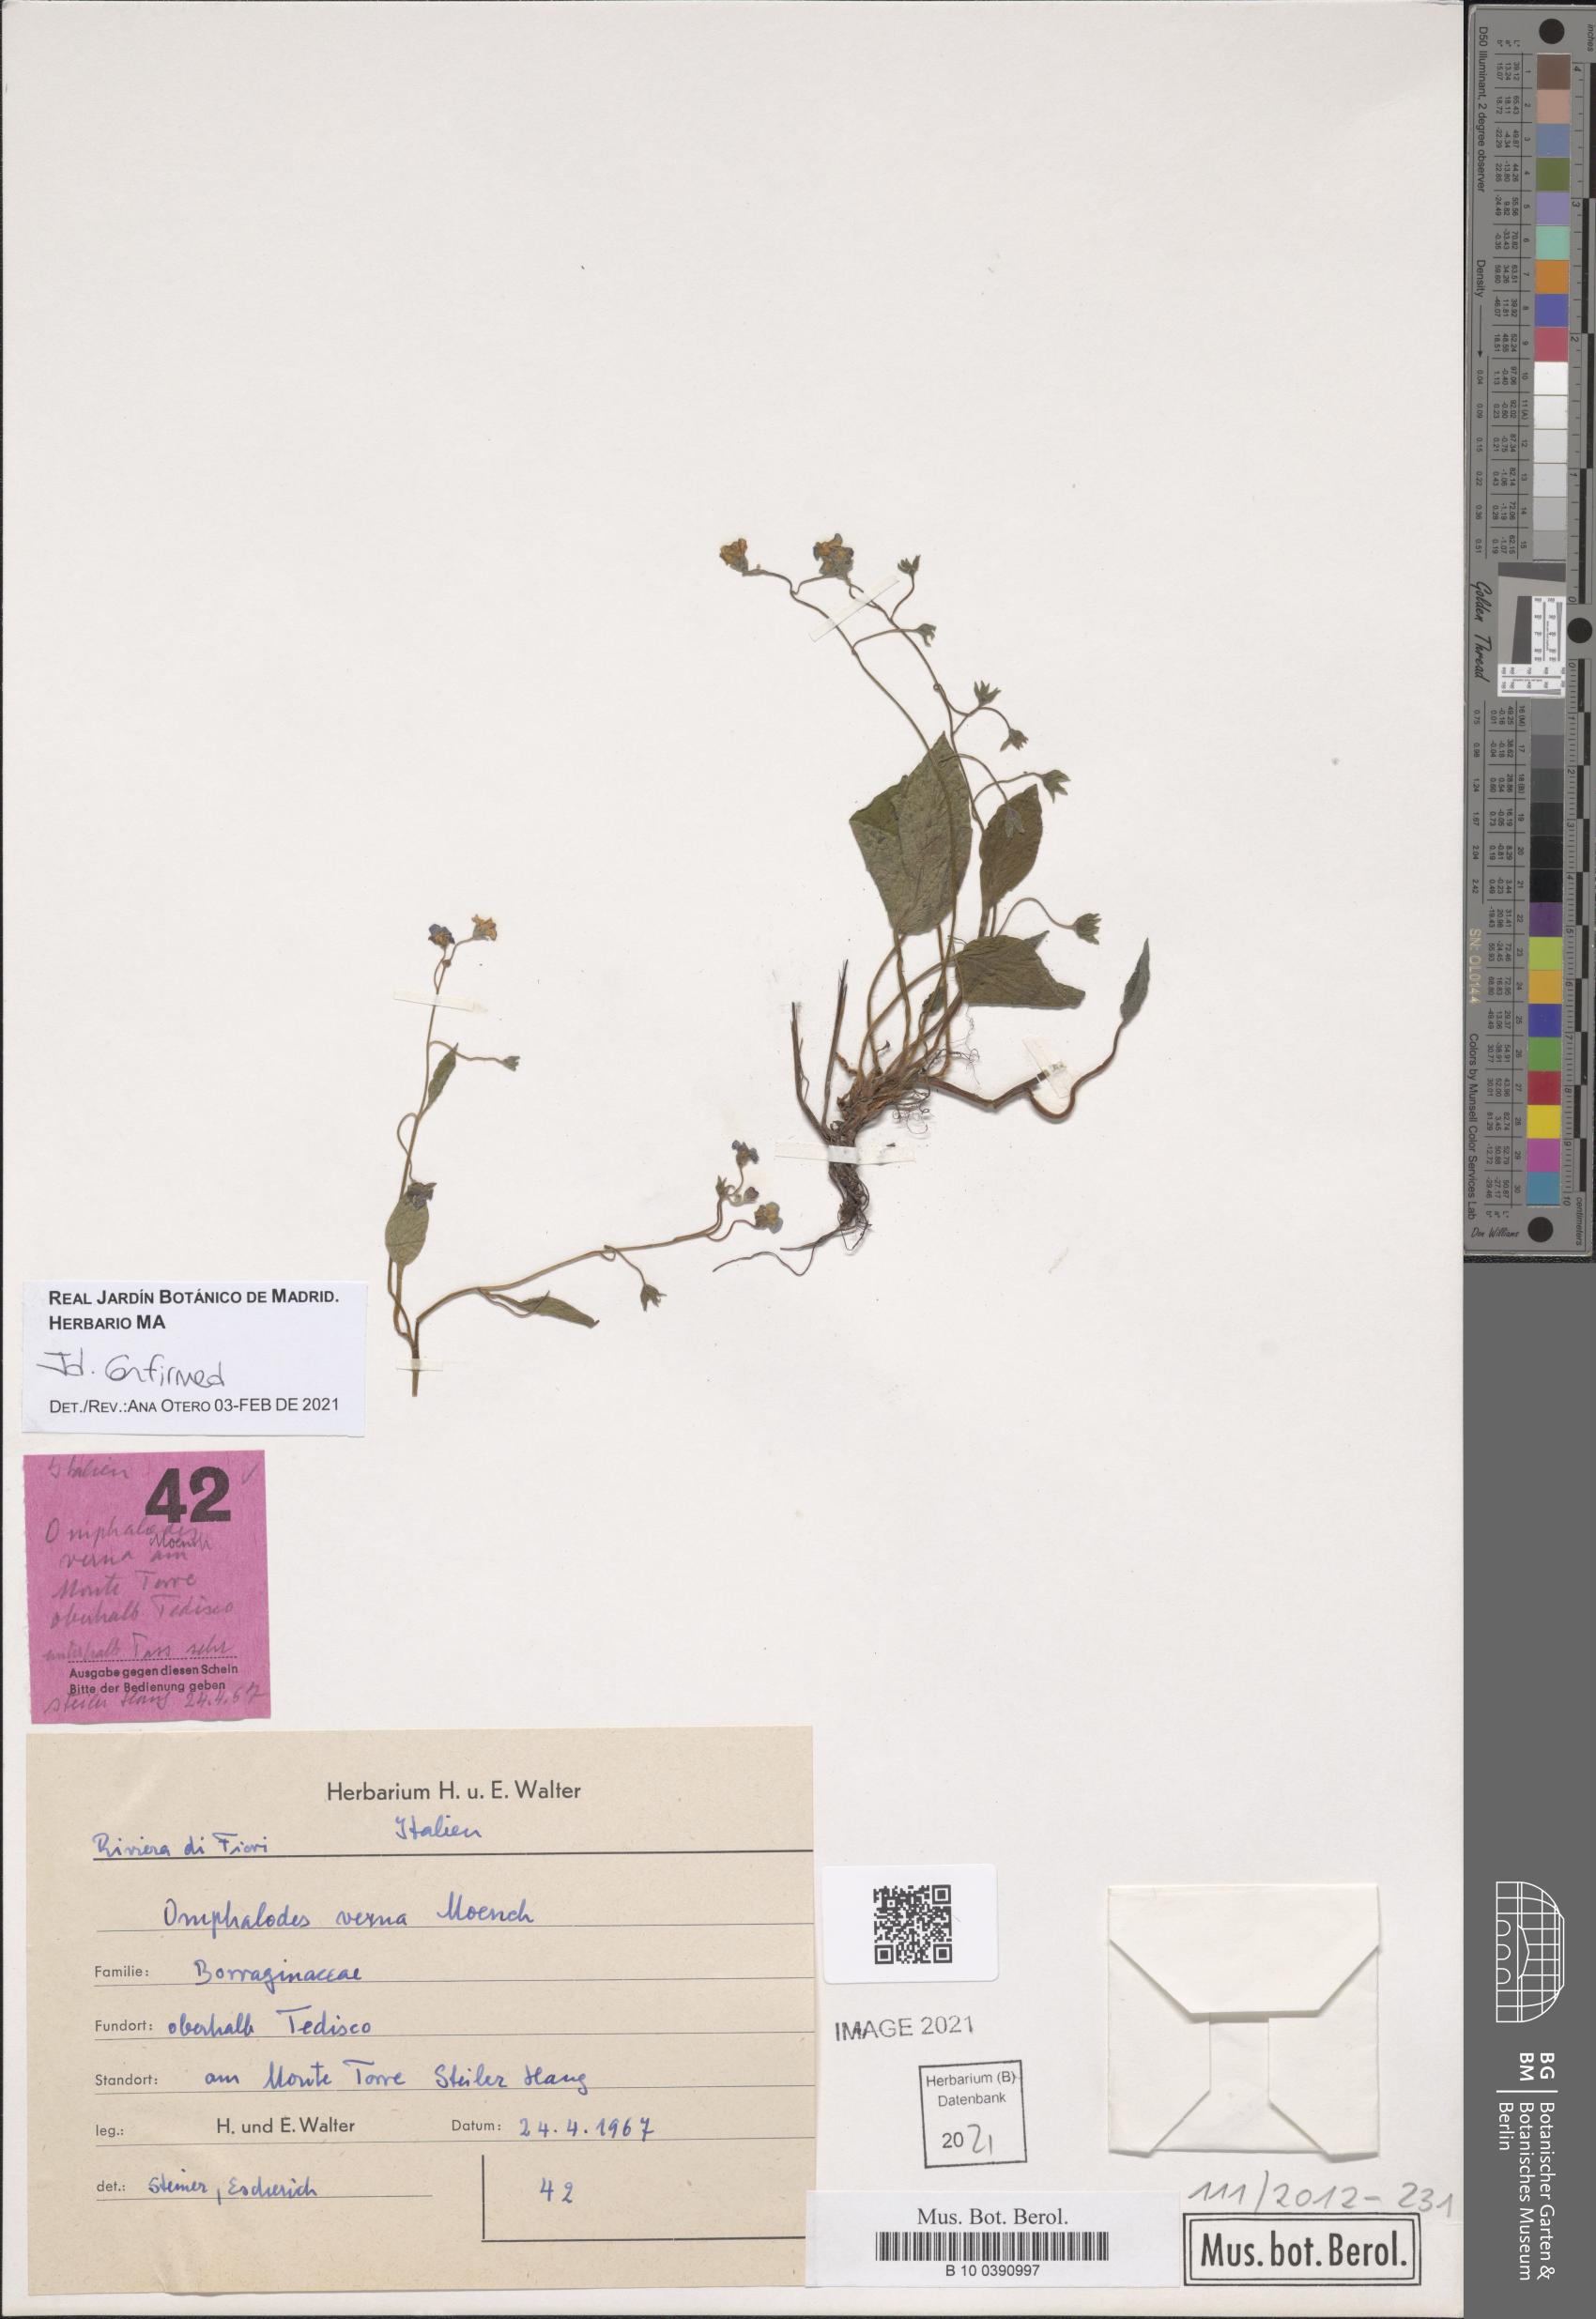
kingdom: Plantae
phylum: Tracheophyta
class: Magnoliopsida
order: Boraginales
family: Boraginaceae
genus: Omphalodes
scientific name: Omphalodes verna
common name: Blue-eyed-mary
